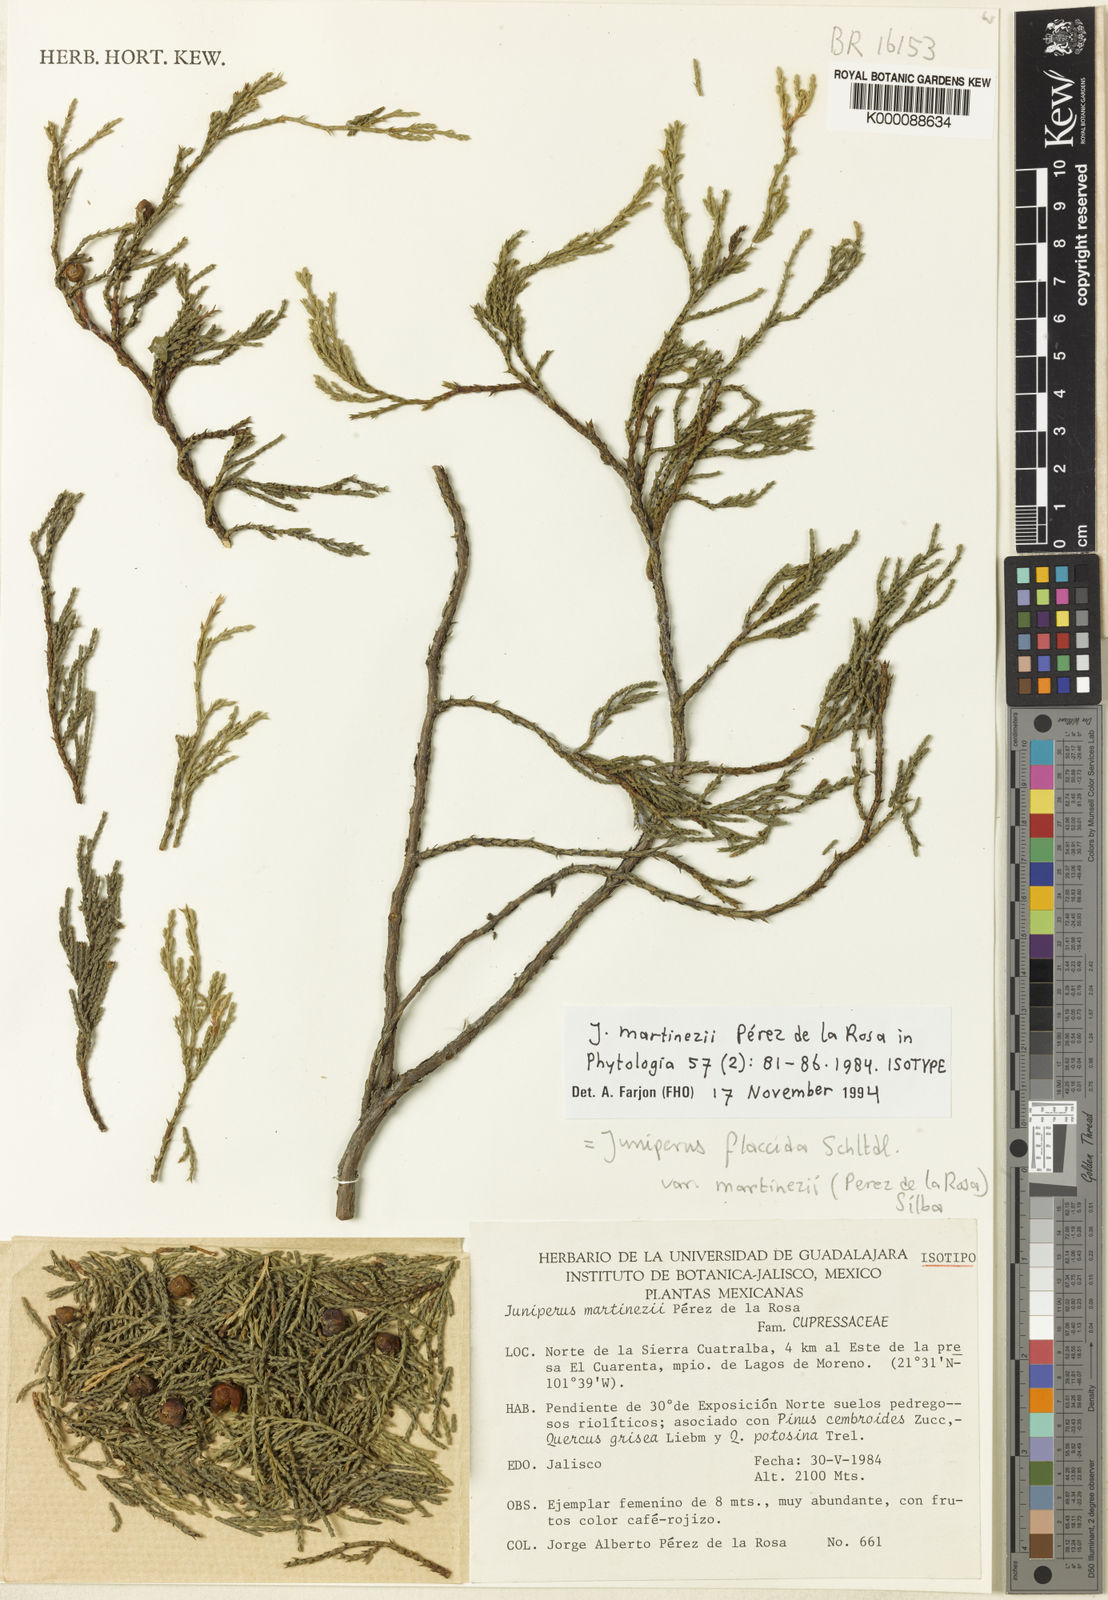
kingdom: Plantae
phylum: Tracheophyta
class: Pinopsida
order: Pinales
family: Cupressaceae
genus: Juniperus
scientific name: Juniperus flaccida
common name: Drooping juniper
